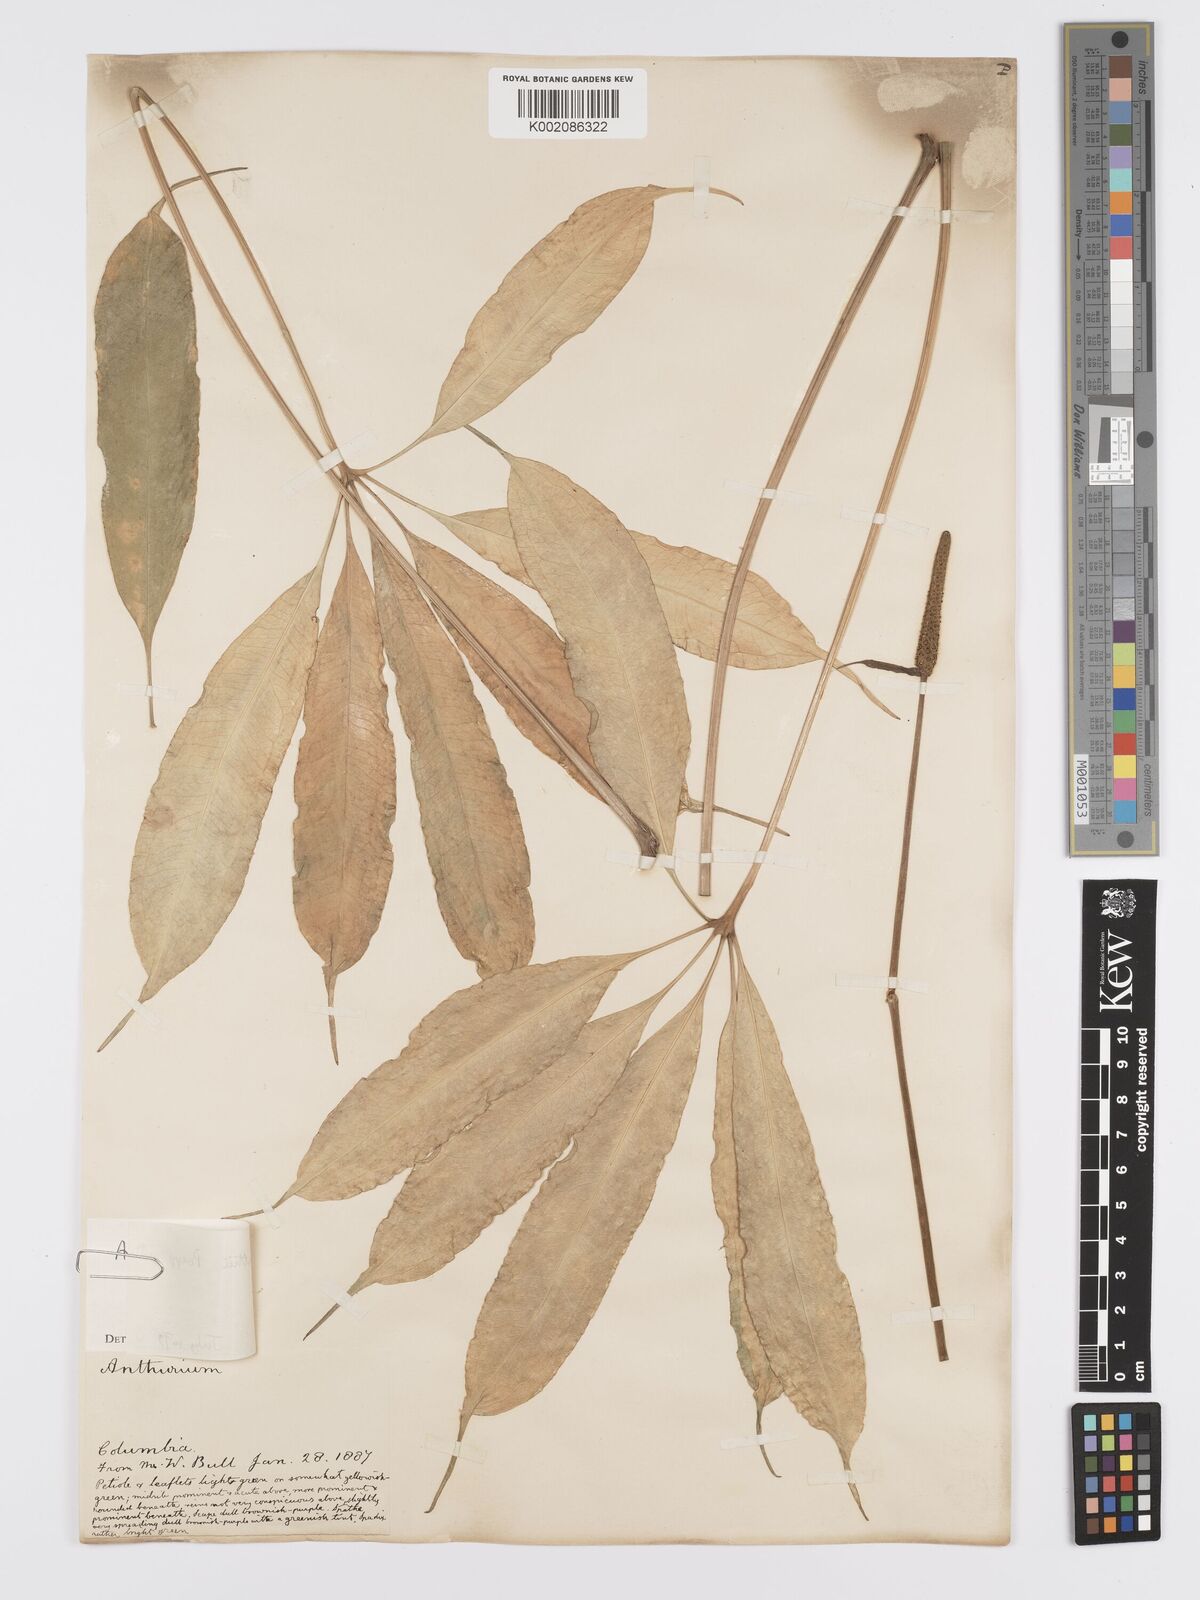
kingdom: Plantae
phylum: Tracheophyta
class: Liliopsida
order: Alismatales
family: Araceae
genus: Anthurium
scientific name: Anthurium kunthii
